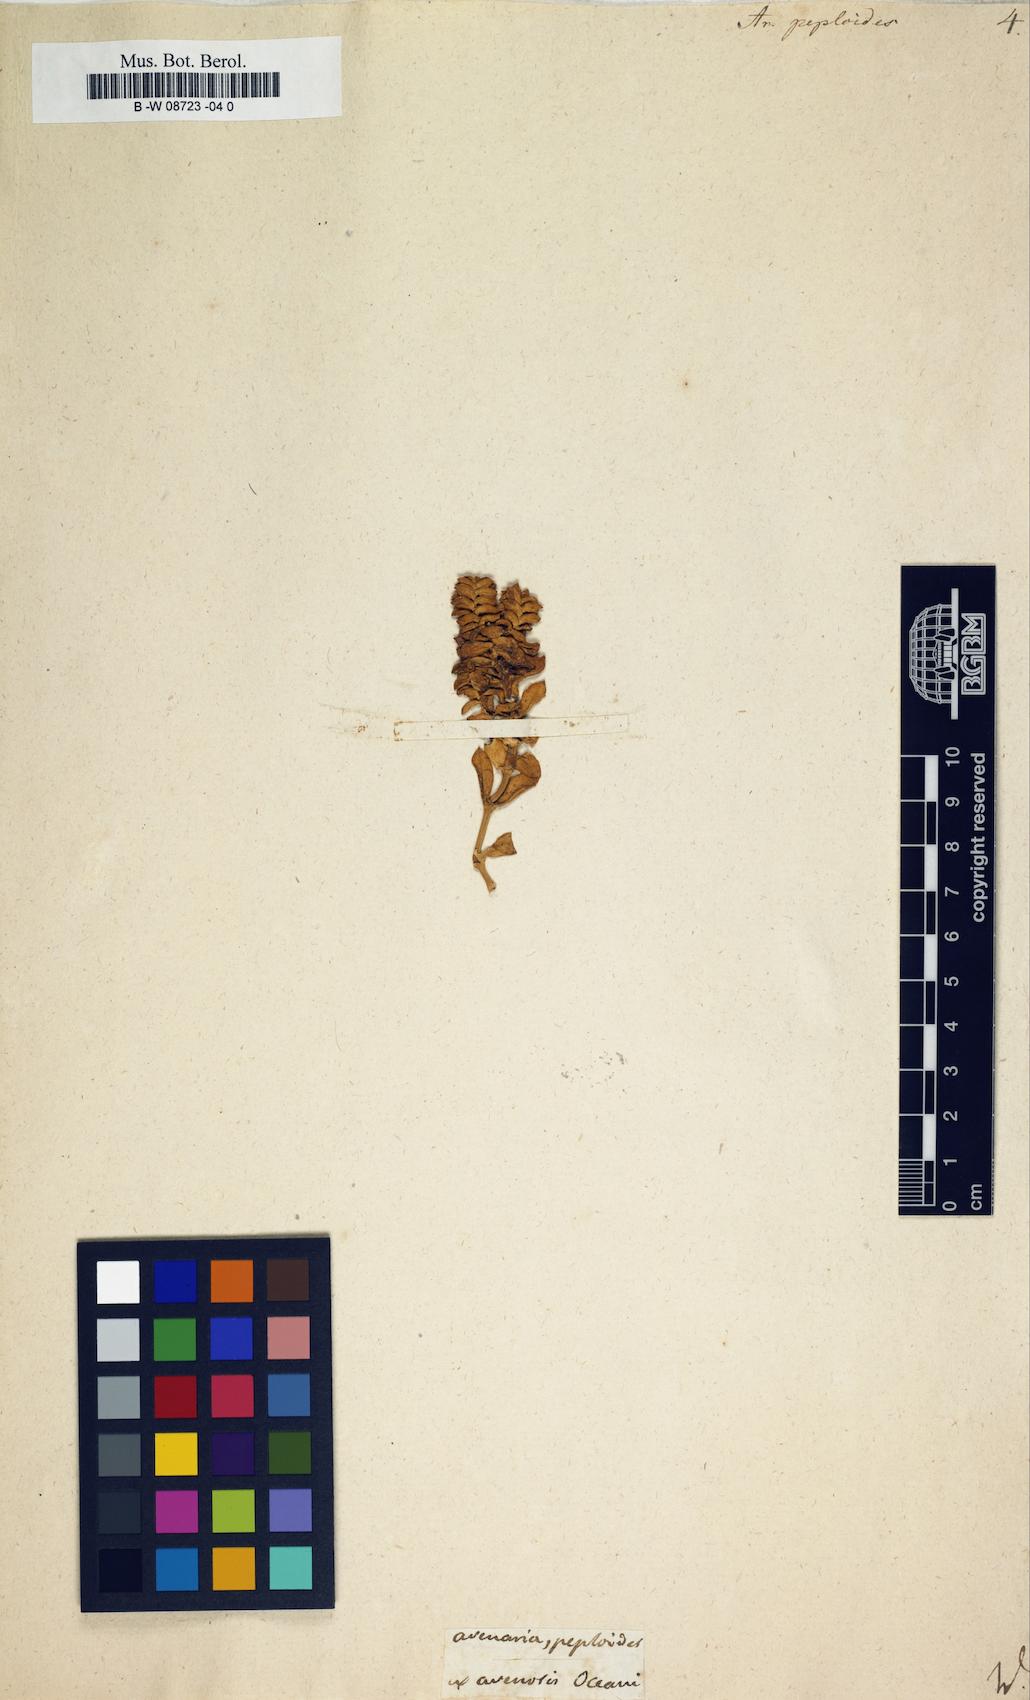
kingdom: Plantae
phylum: Tracheophyta
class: Magnoliopsida
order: Caryophyllales
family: Caryophyllaceae
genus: Honckenya
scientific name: Honckenya peploides
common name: Sea sandwort
